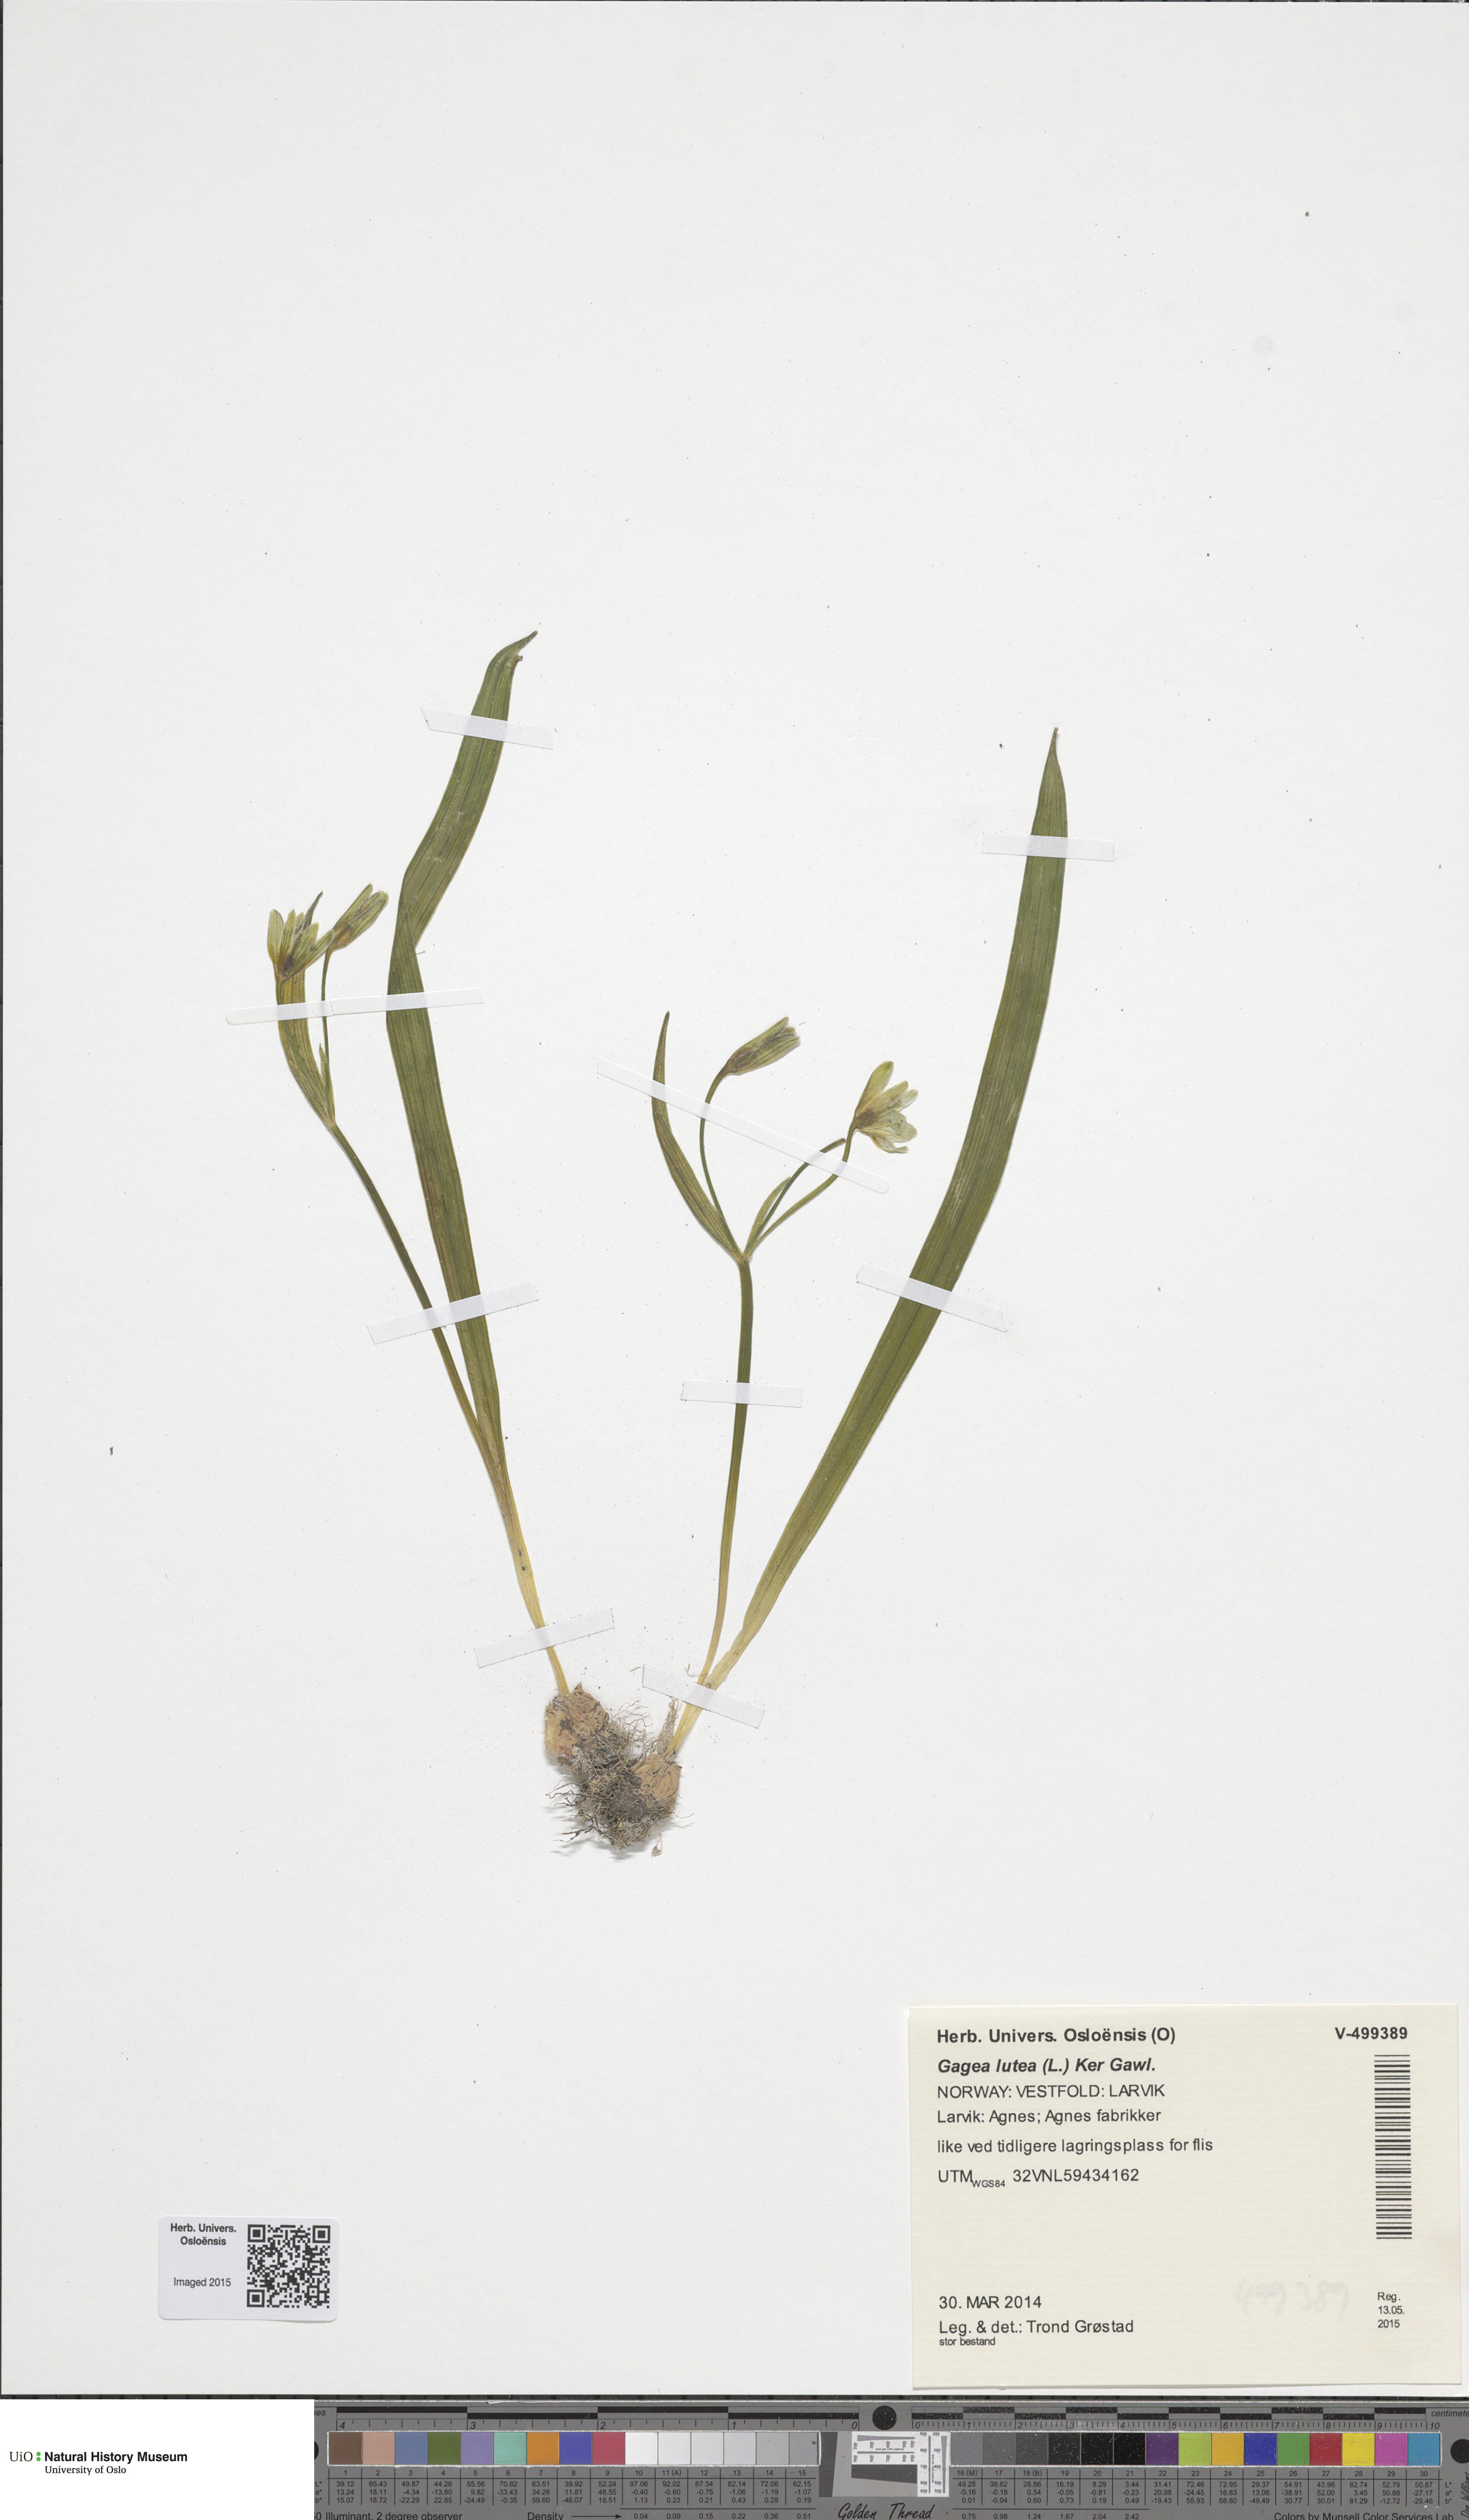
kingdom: Plantae
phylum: Tracheophyta
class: Liliopsida
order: Liliales
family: Liliaceae
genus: Gagea
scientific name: Gagea lutea
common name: Yellow star-of-bethlehem
